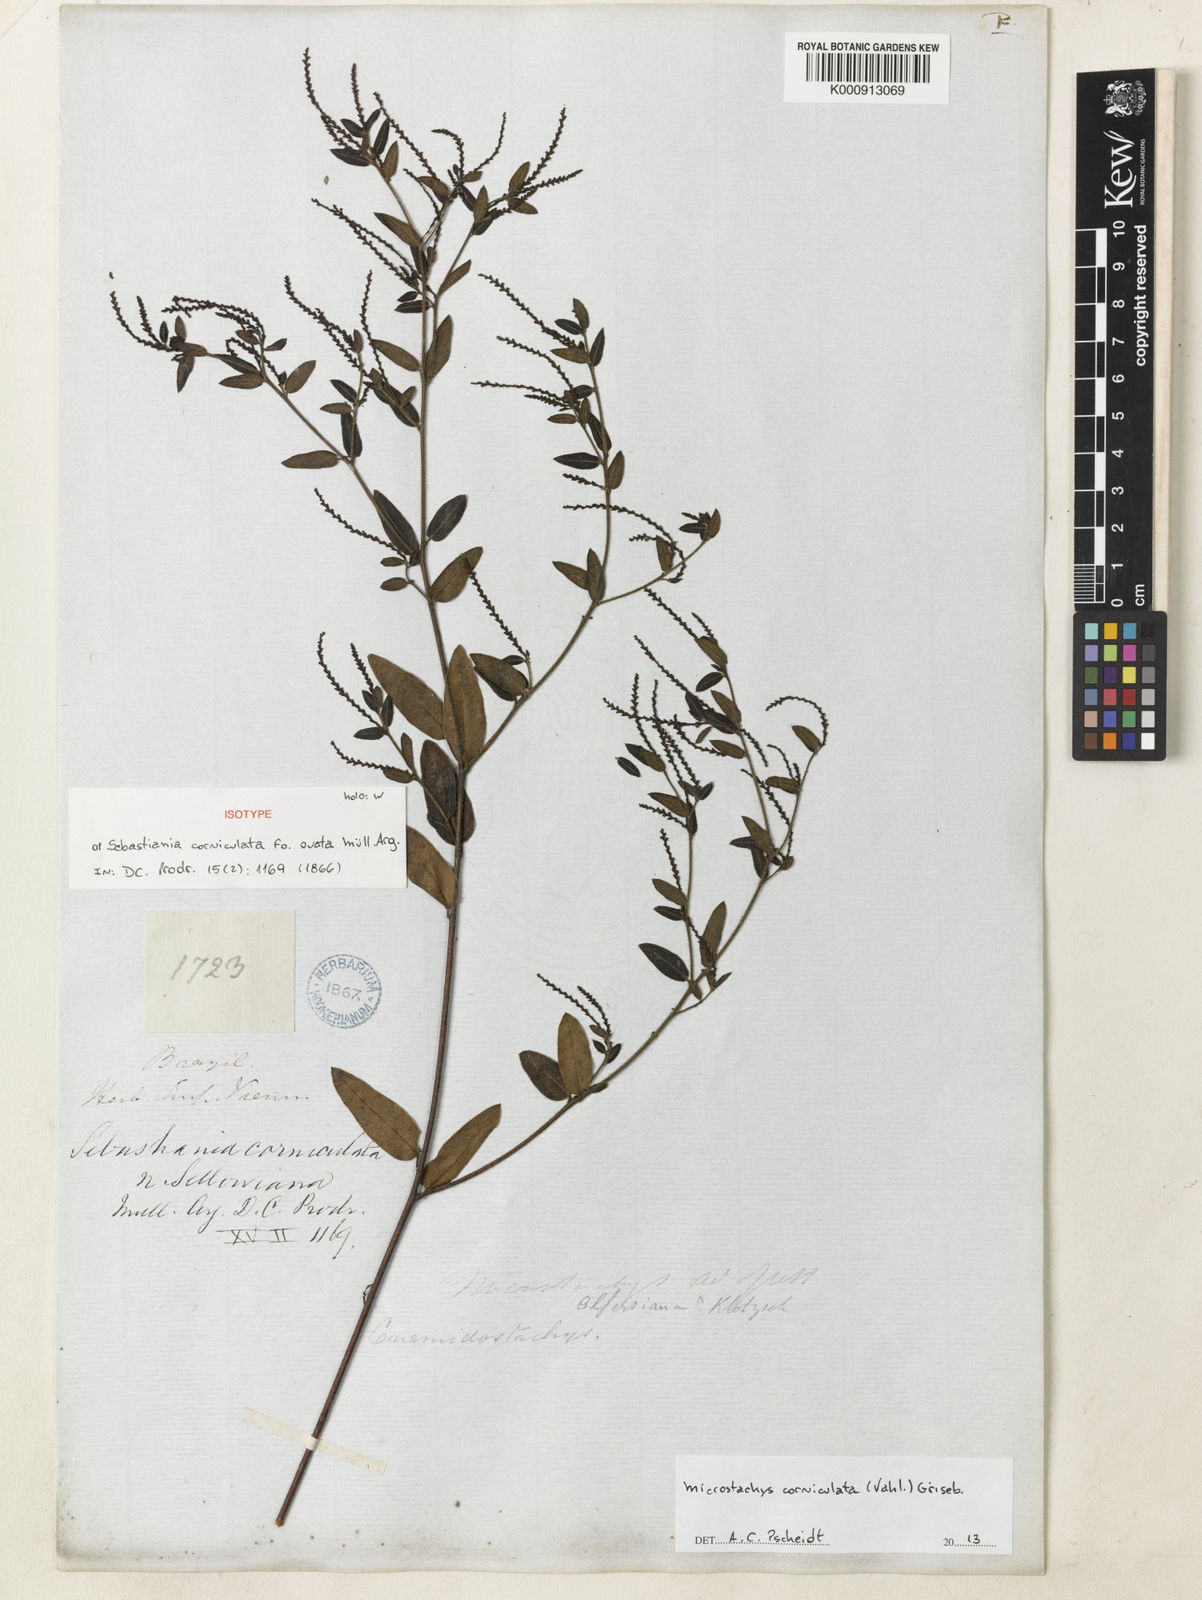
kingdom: Plantae
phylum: Tracheophyta
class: Magnoliopsida
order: Malpighiales
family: Euphorbiaceae
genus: Microstachys
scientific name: Microstachys corniculata
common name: Hato tejas
